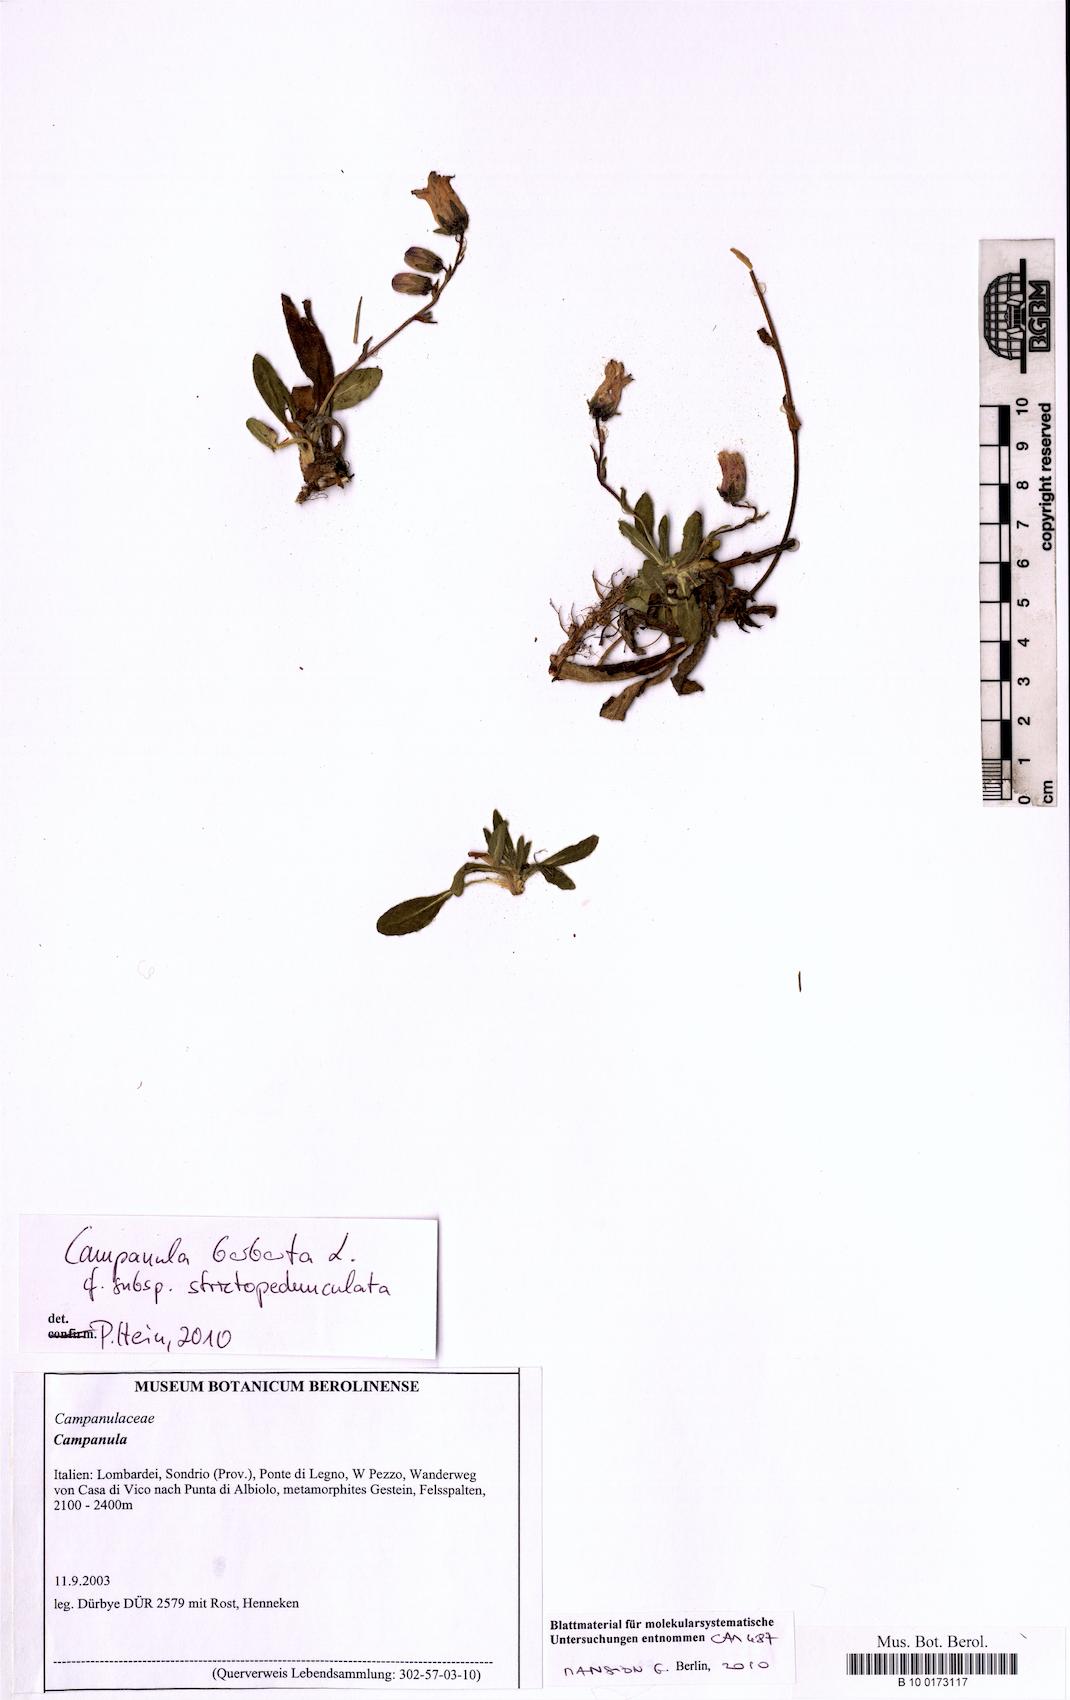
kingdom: Plantae
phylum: Tracheophyta
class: Magnoliopsida
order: Asterales
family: Campanulaceae
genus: Campanula
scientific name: Campanula barbata
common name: Bearded bellflower
